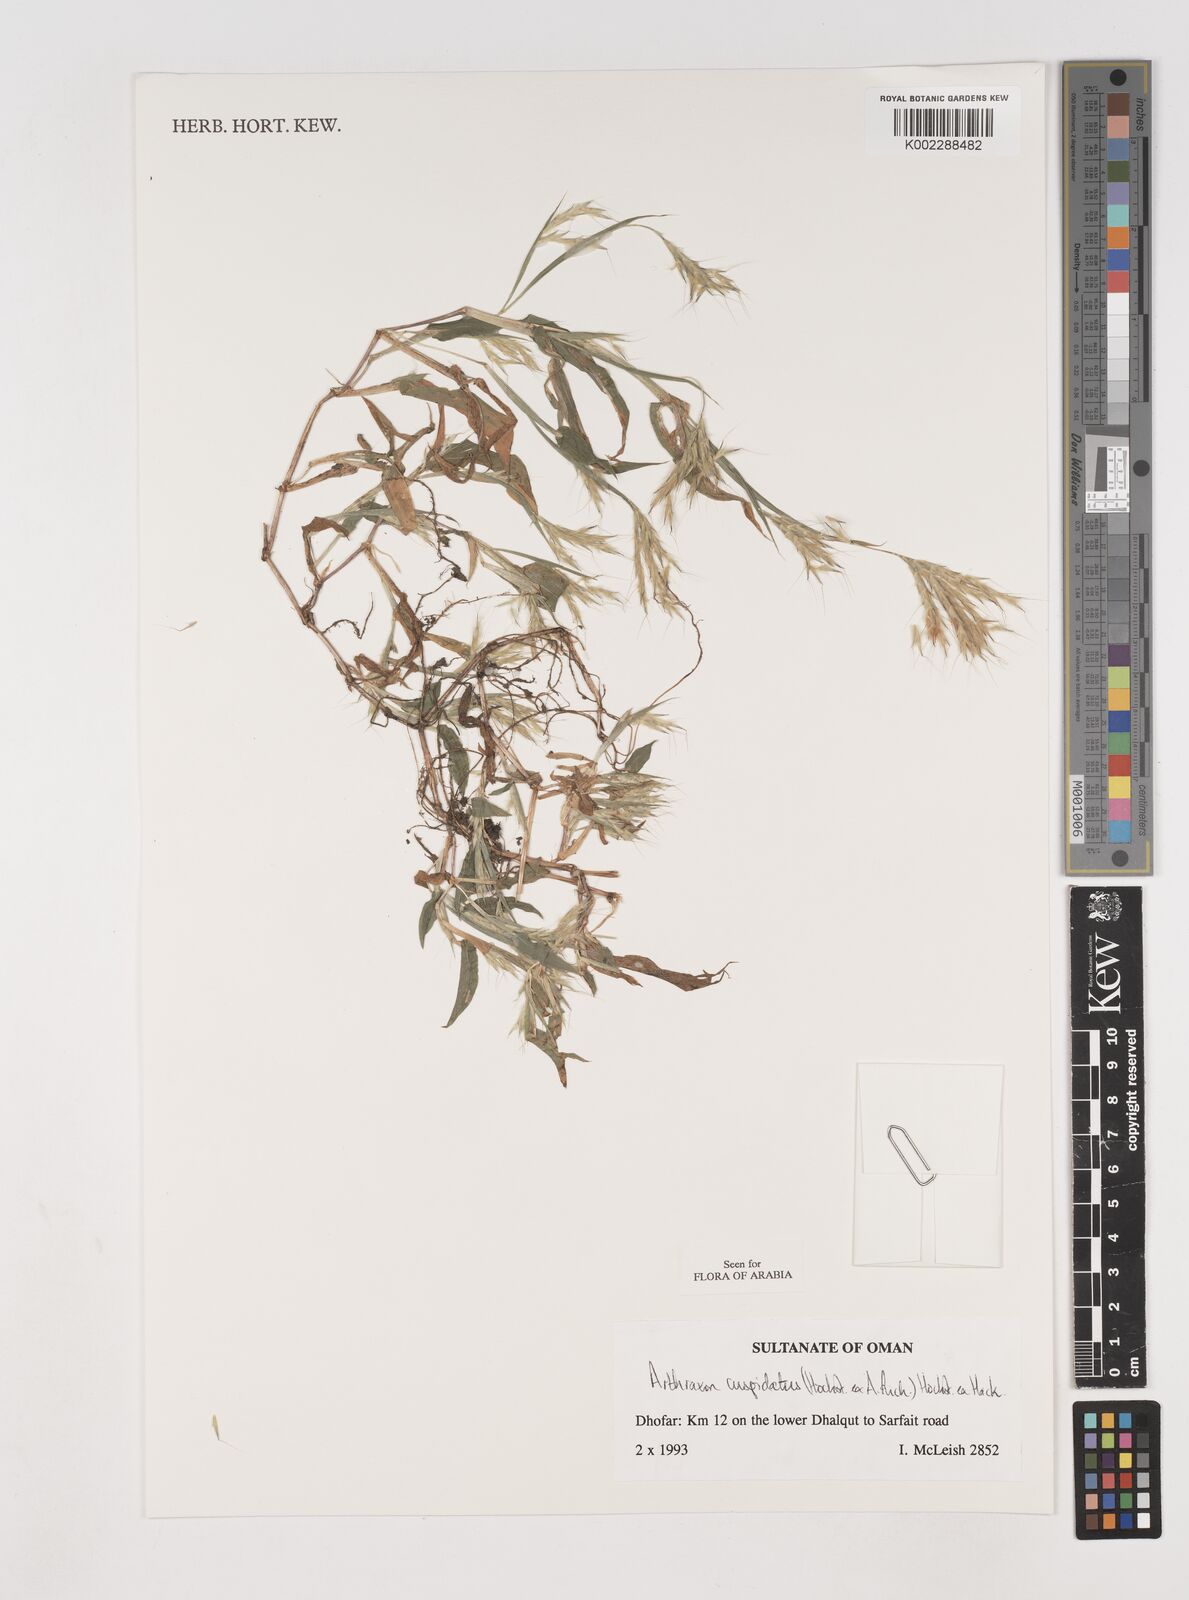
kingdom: Plantae
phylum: Tracheophyta
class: Liliopsida
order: Poales
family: Poaceae
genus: Arthraxon
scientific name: Arthraxon cuspidatus
